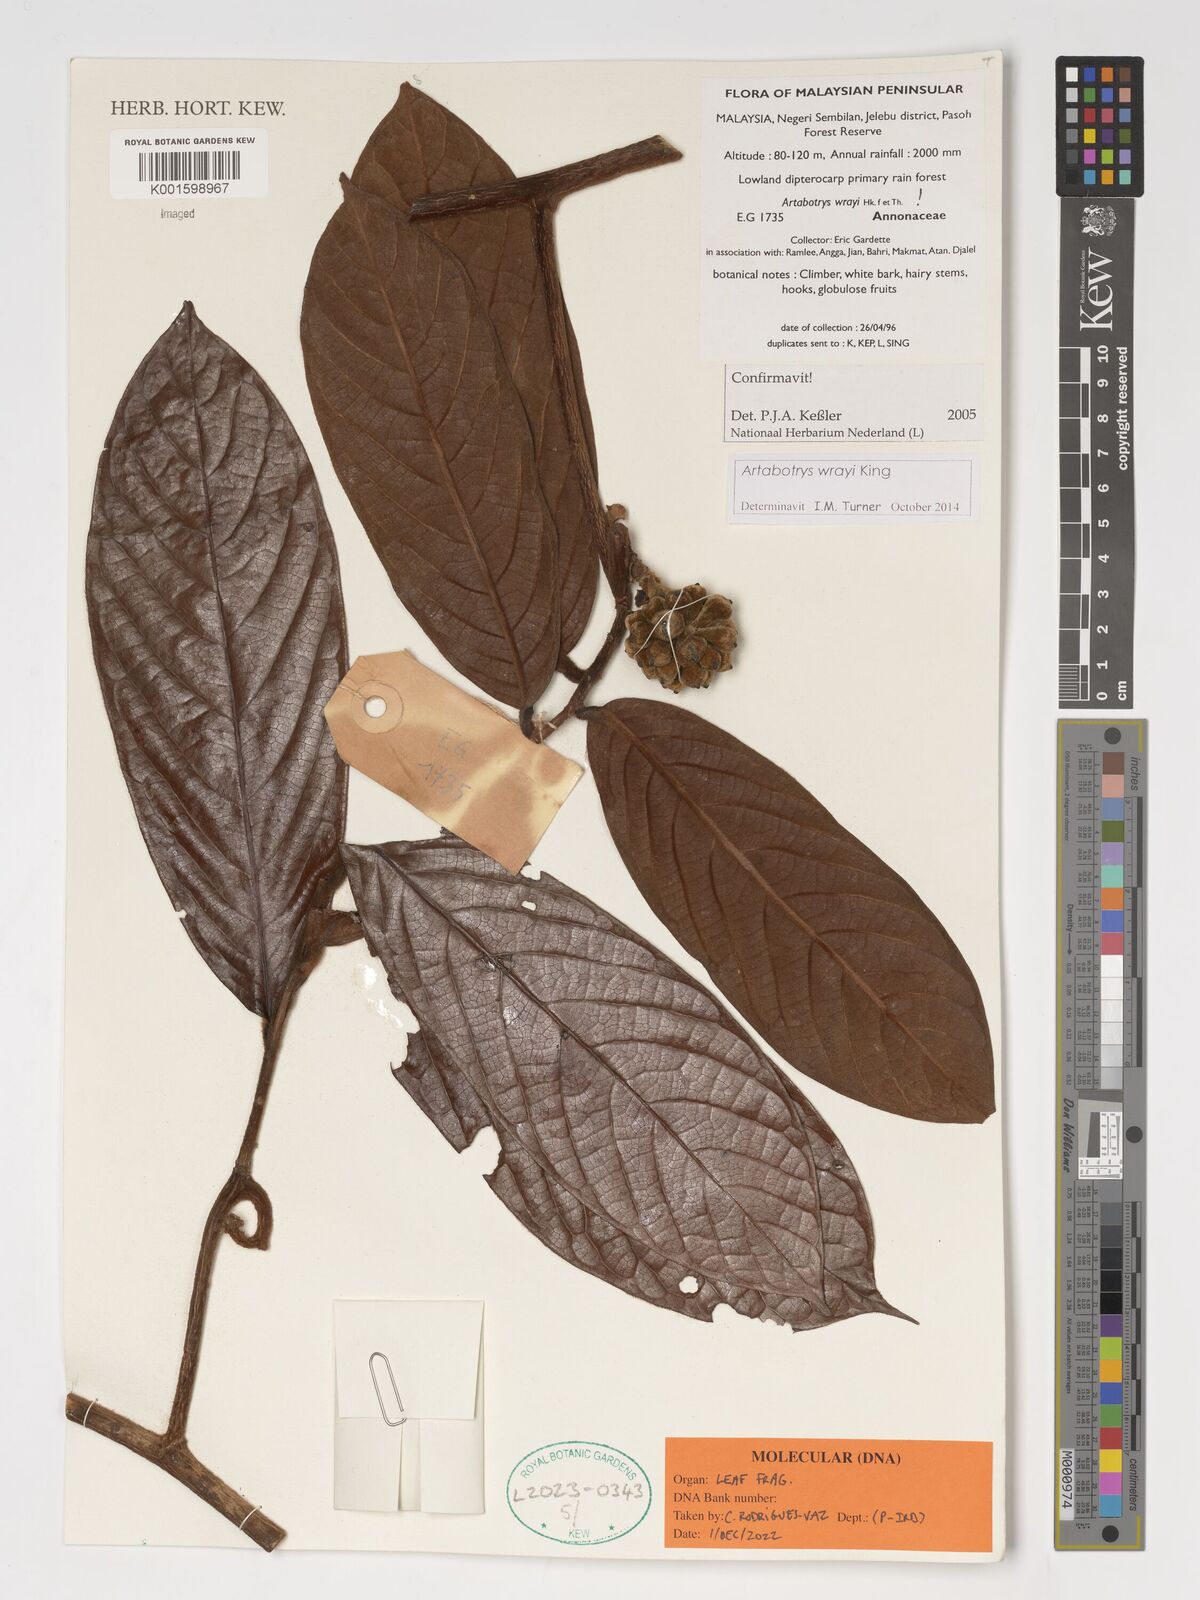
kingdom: Plantae
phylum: Tracheophyta
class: Magnoliopsida
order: Magnoliales
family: Annonaceae
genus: Artabotrys
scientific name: Artabotrys wrayi
